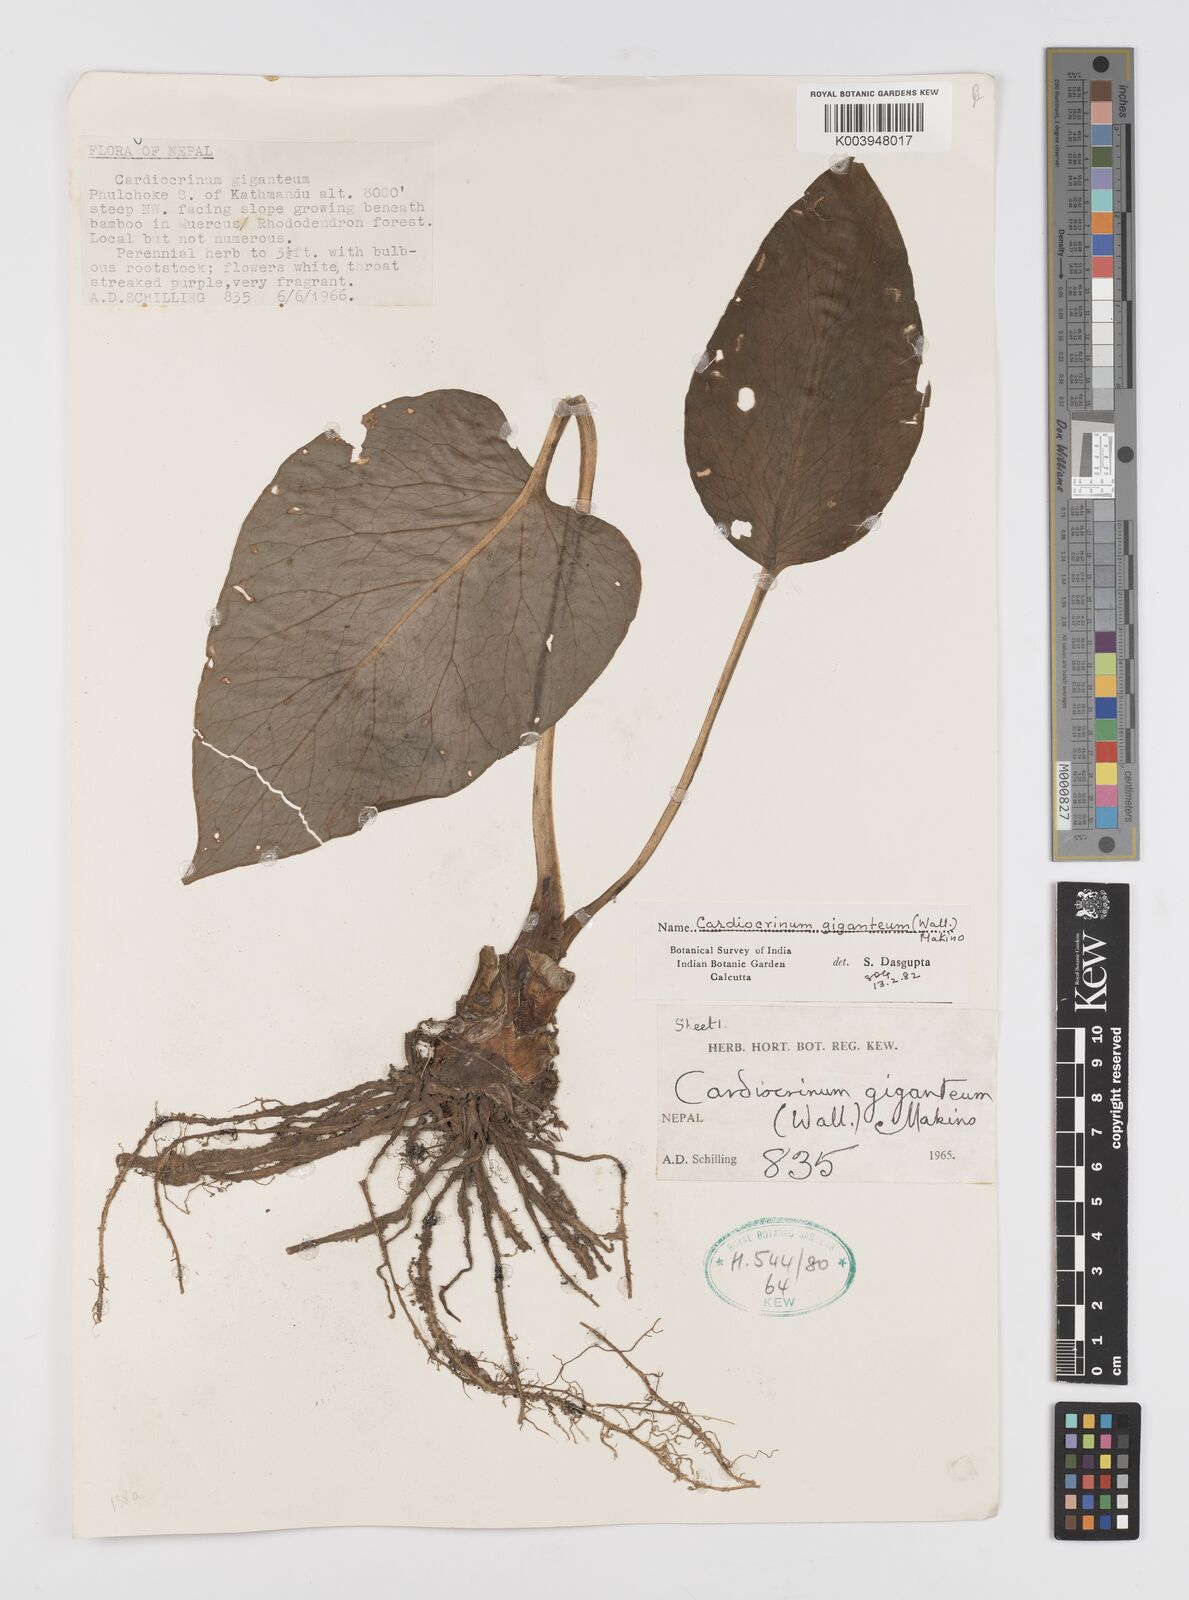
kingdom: Plantae
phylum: Tracheophyta
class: Liliopsida
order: Liliales
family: Liliaceae
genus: Cardiocrinum
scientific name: Cardiocrinum giganteum
